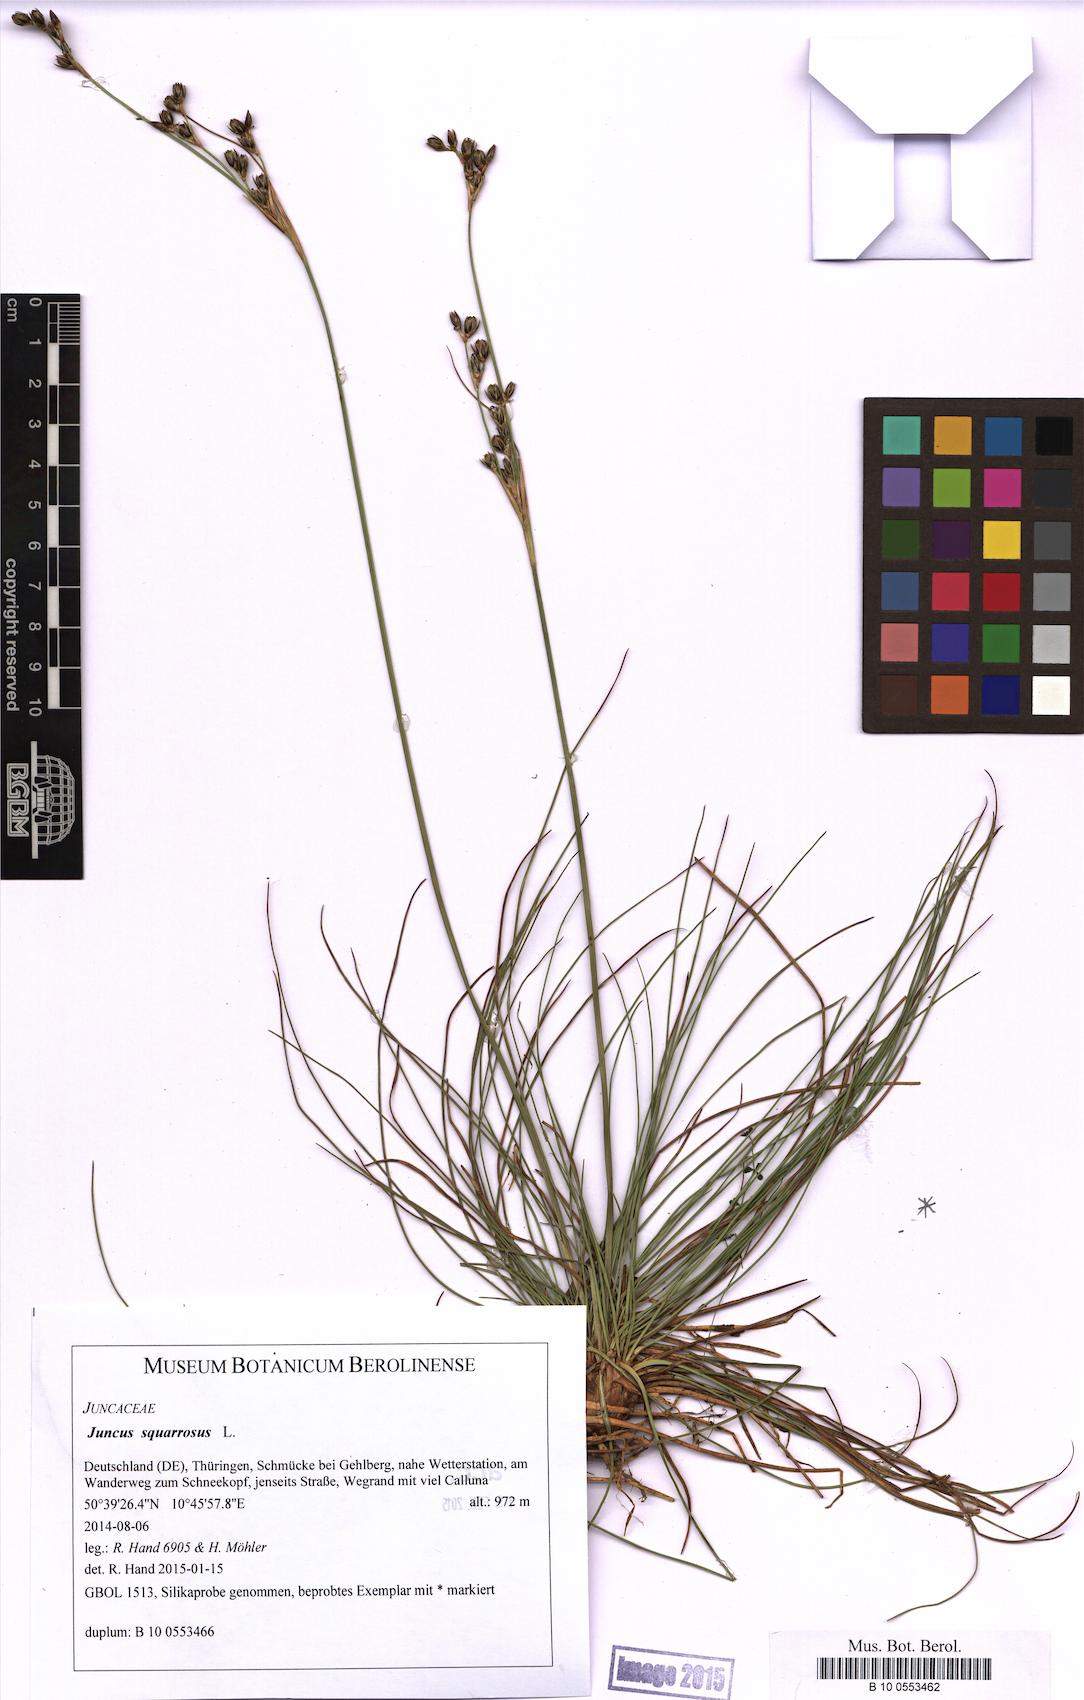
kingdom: Plantae
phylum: Tracheophyta
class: Liliopsida
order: Poales
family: Juncaceae
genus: Juncus
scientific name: Juncus squarrosus
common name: Heath rush
